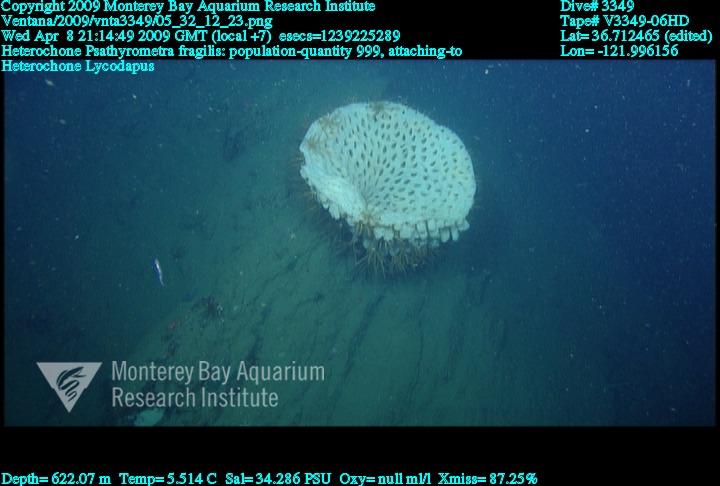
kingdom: Animalia
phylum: Porifera
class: Hexactinellida
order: Sceptrulophora
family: Aphrocallistidae
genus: Heterochone
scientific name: Heterochone
